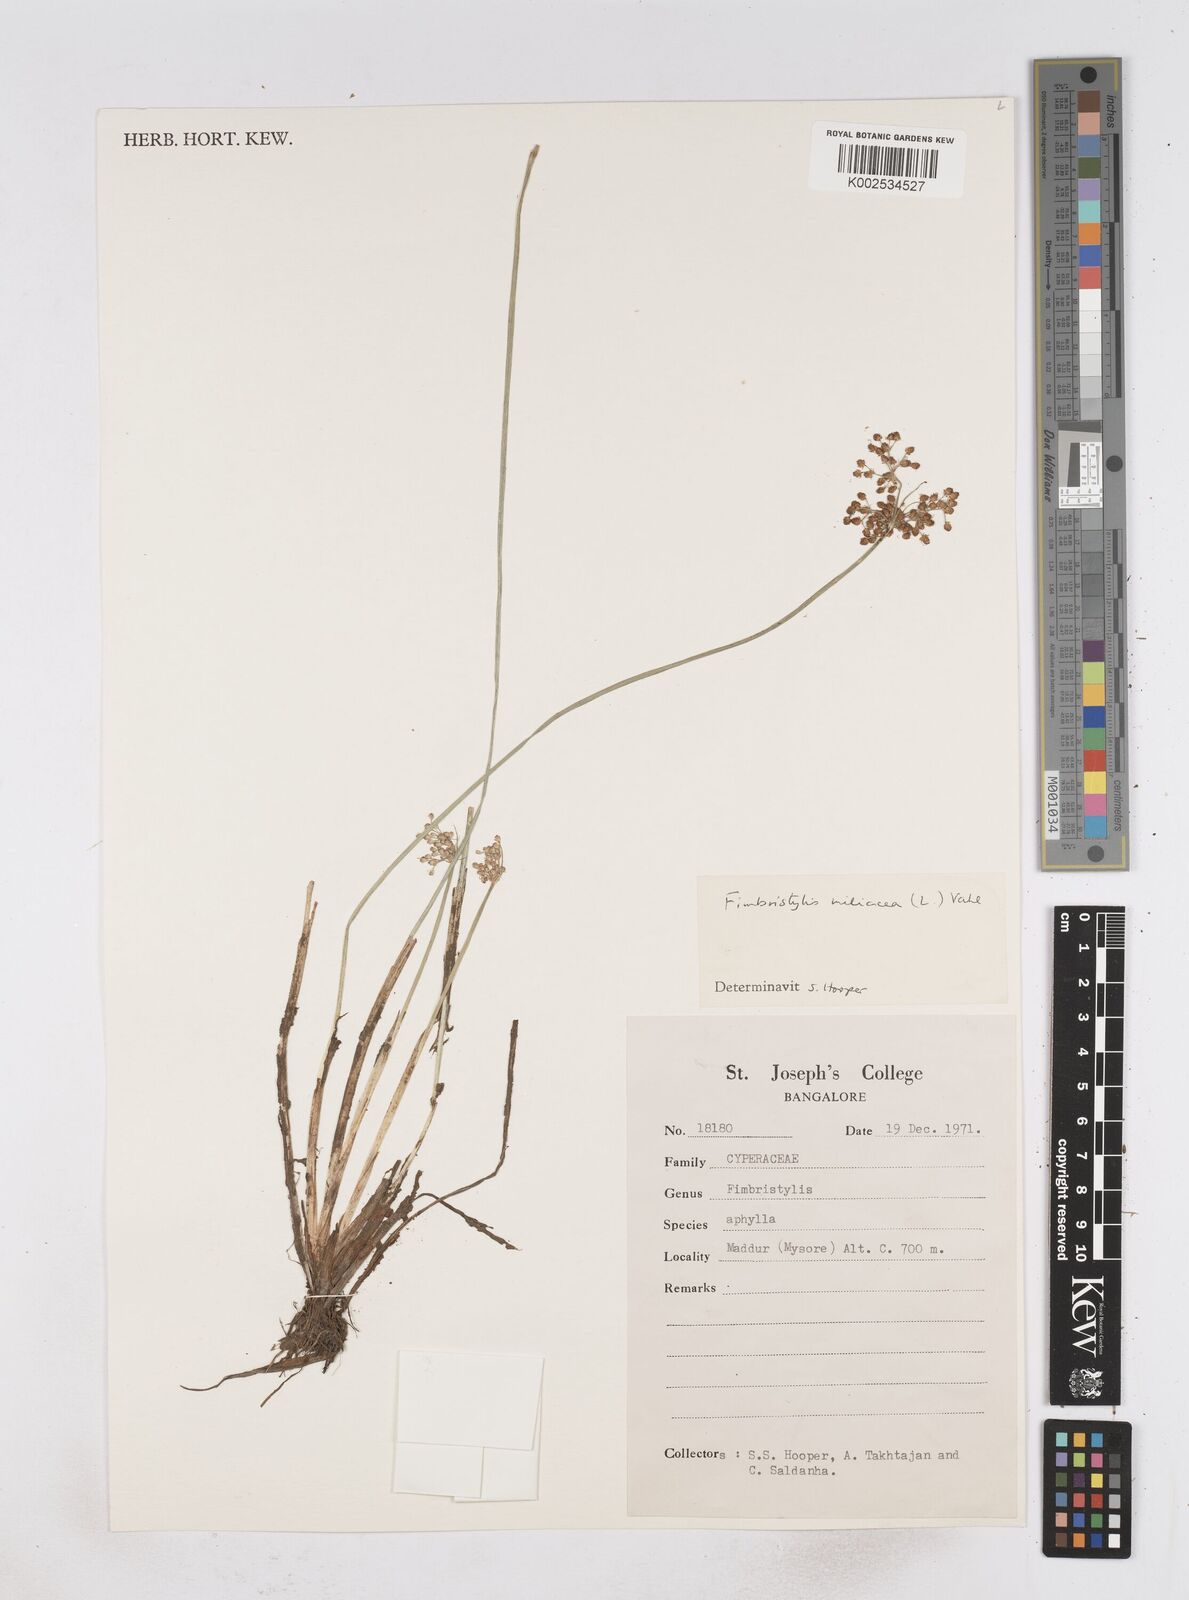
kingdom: Plantae
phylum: Tracheophyta
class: Liliopsida
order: Poales
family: Cyperaceae
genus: Fimbristylis
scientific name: Fimbristylis quinquangularis
